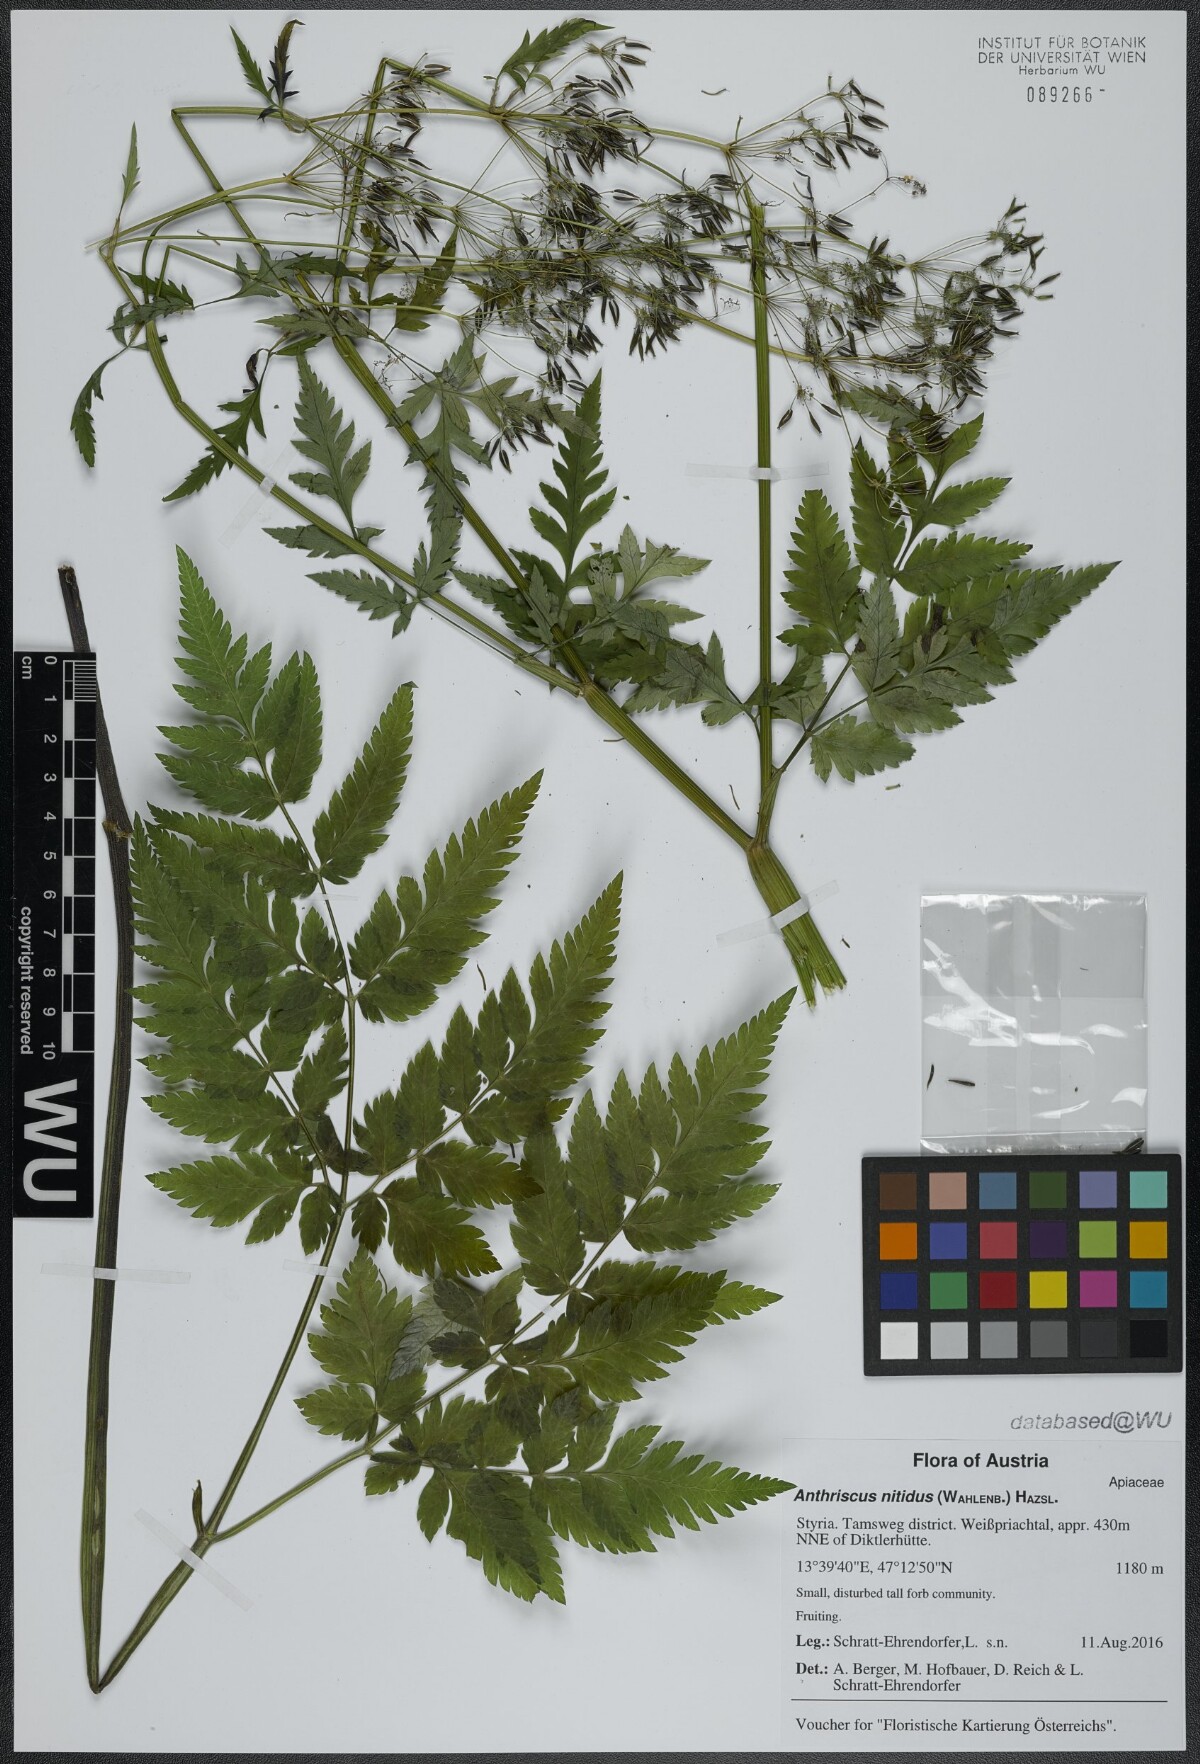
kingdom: Plantae
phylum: Tracheophyta
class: Magnoliopsida
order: Apiales
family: Apiaceae
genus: Anthriscus
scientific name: Anthriscus nitida
